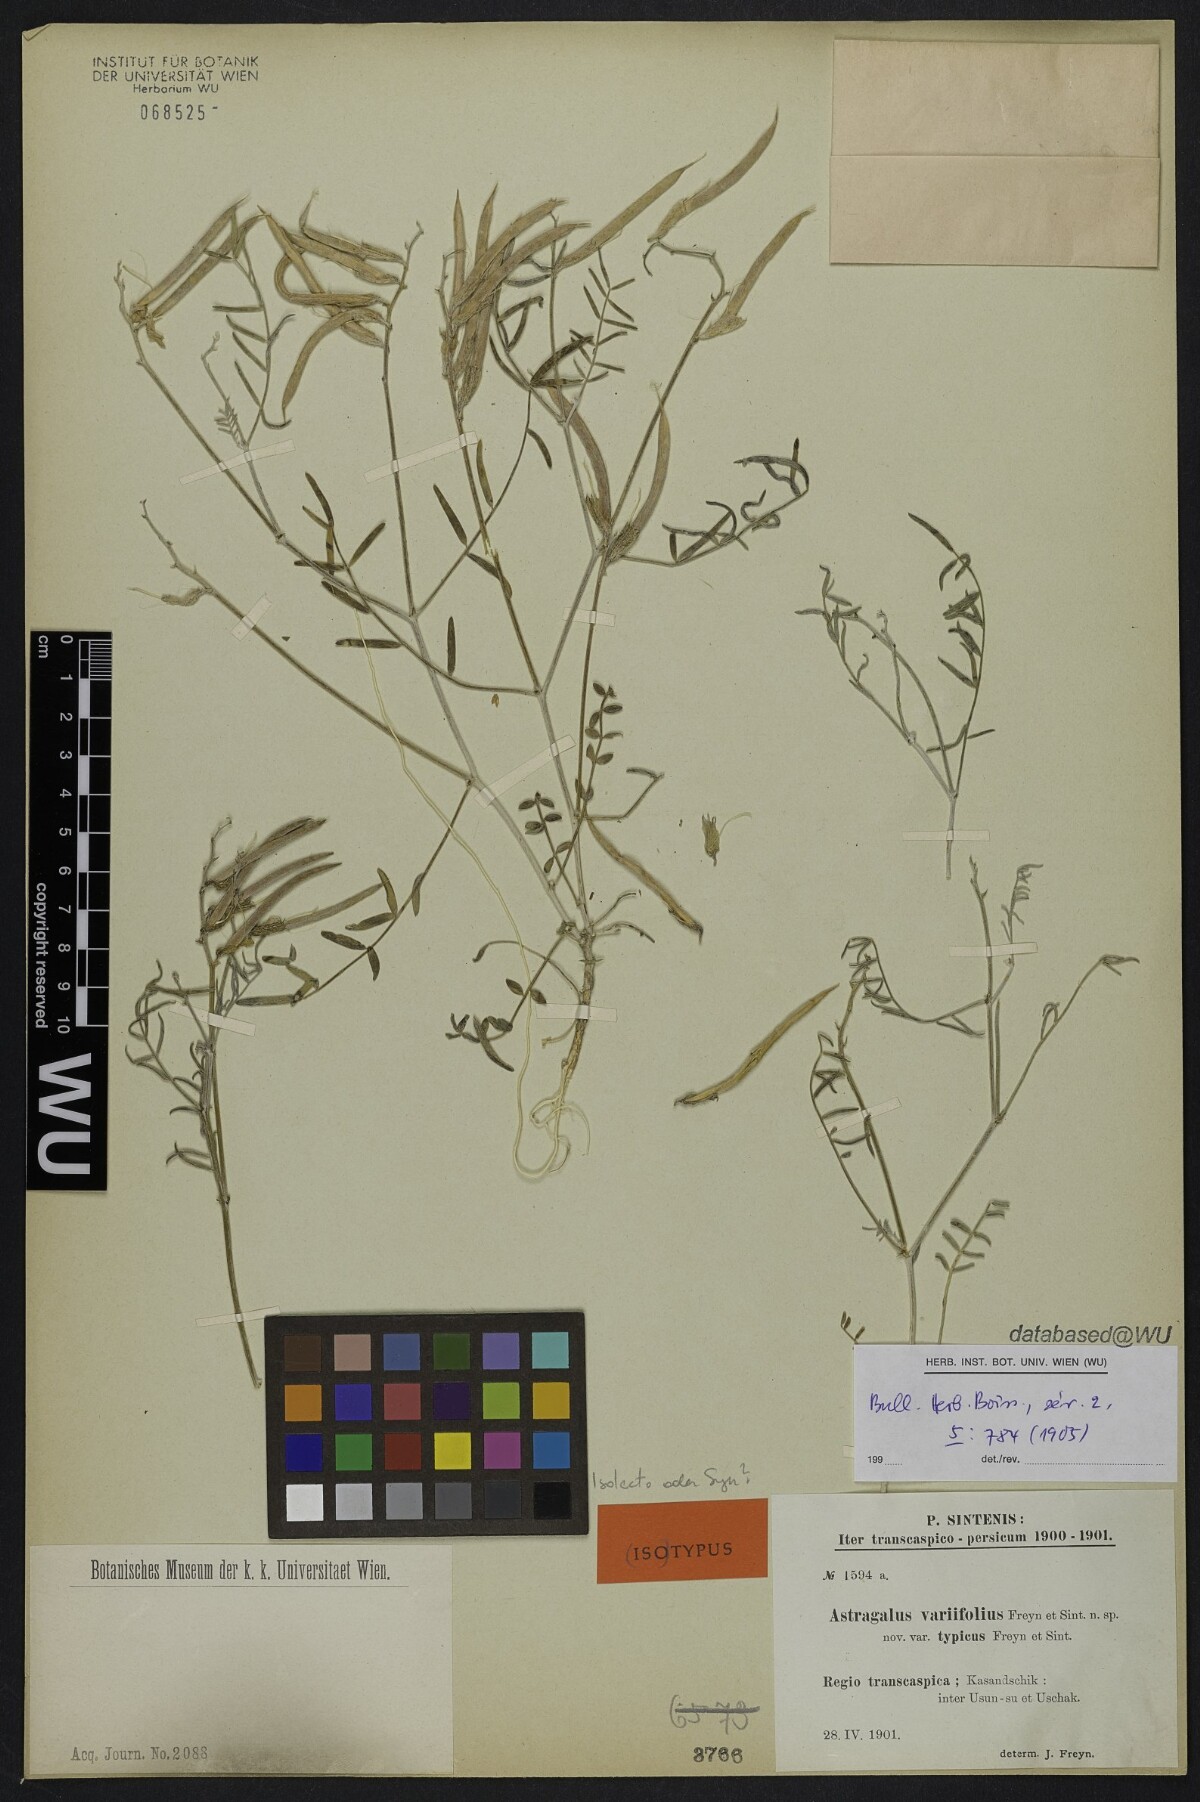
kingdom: Plantae
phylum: Tracheophyta
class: Magnoliopsida
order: Fabales
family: Fabaceae
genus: Astragalus
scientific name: Astragalus juratzkanus
